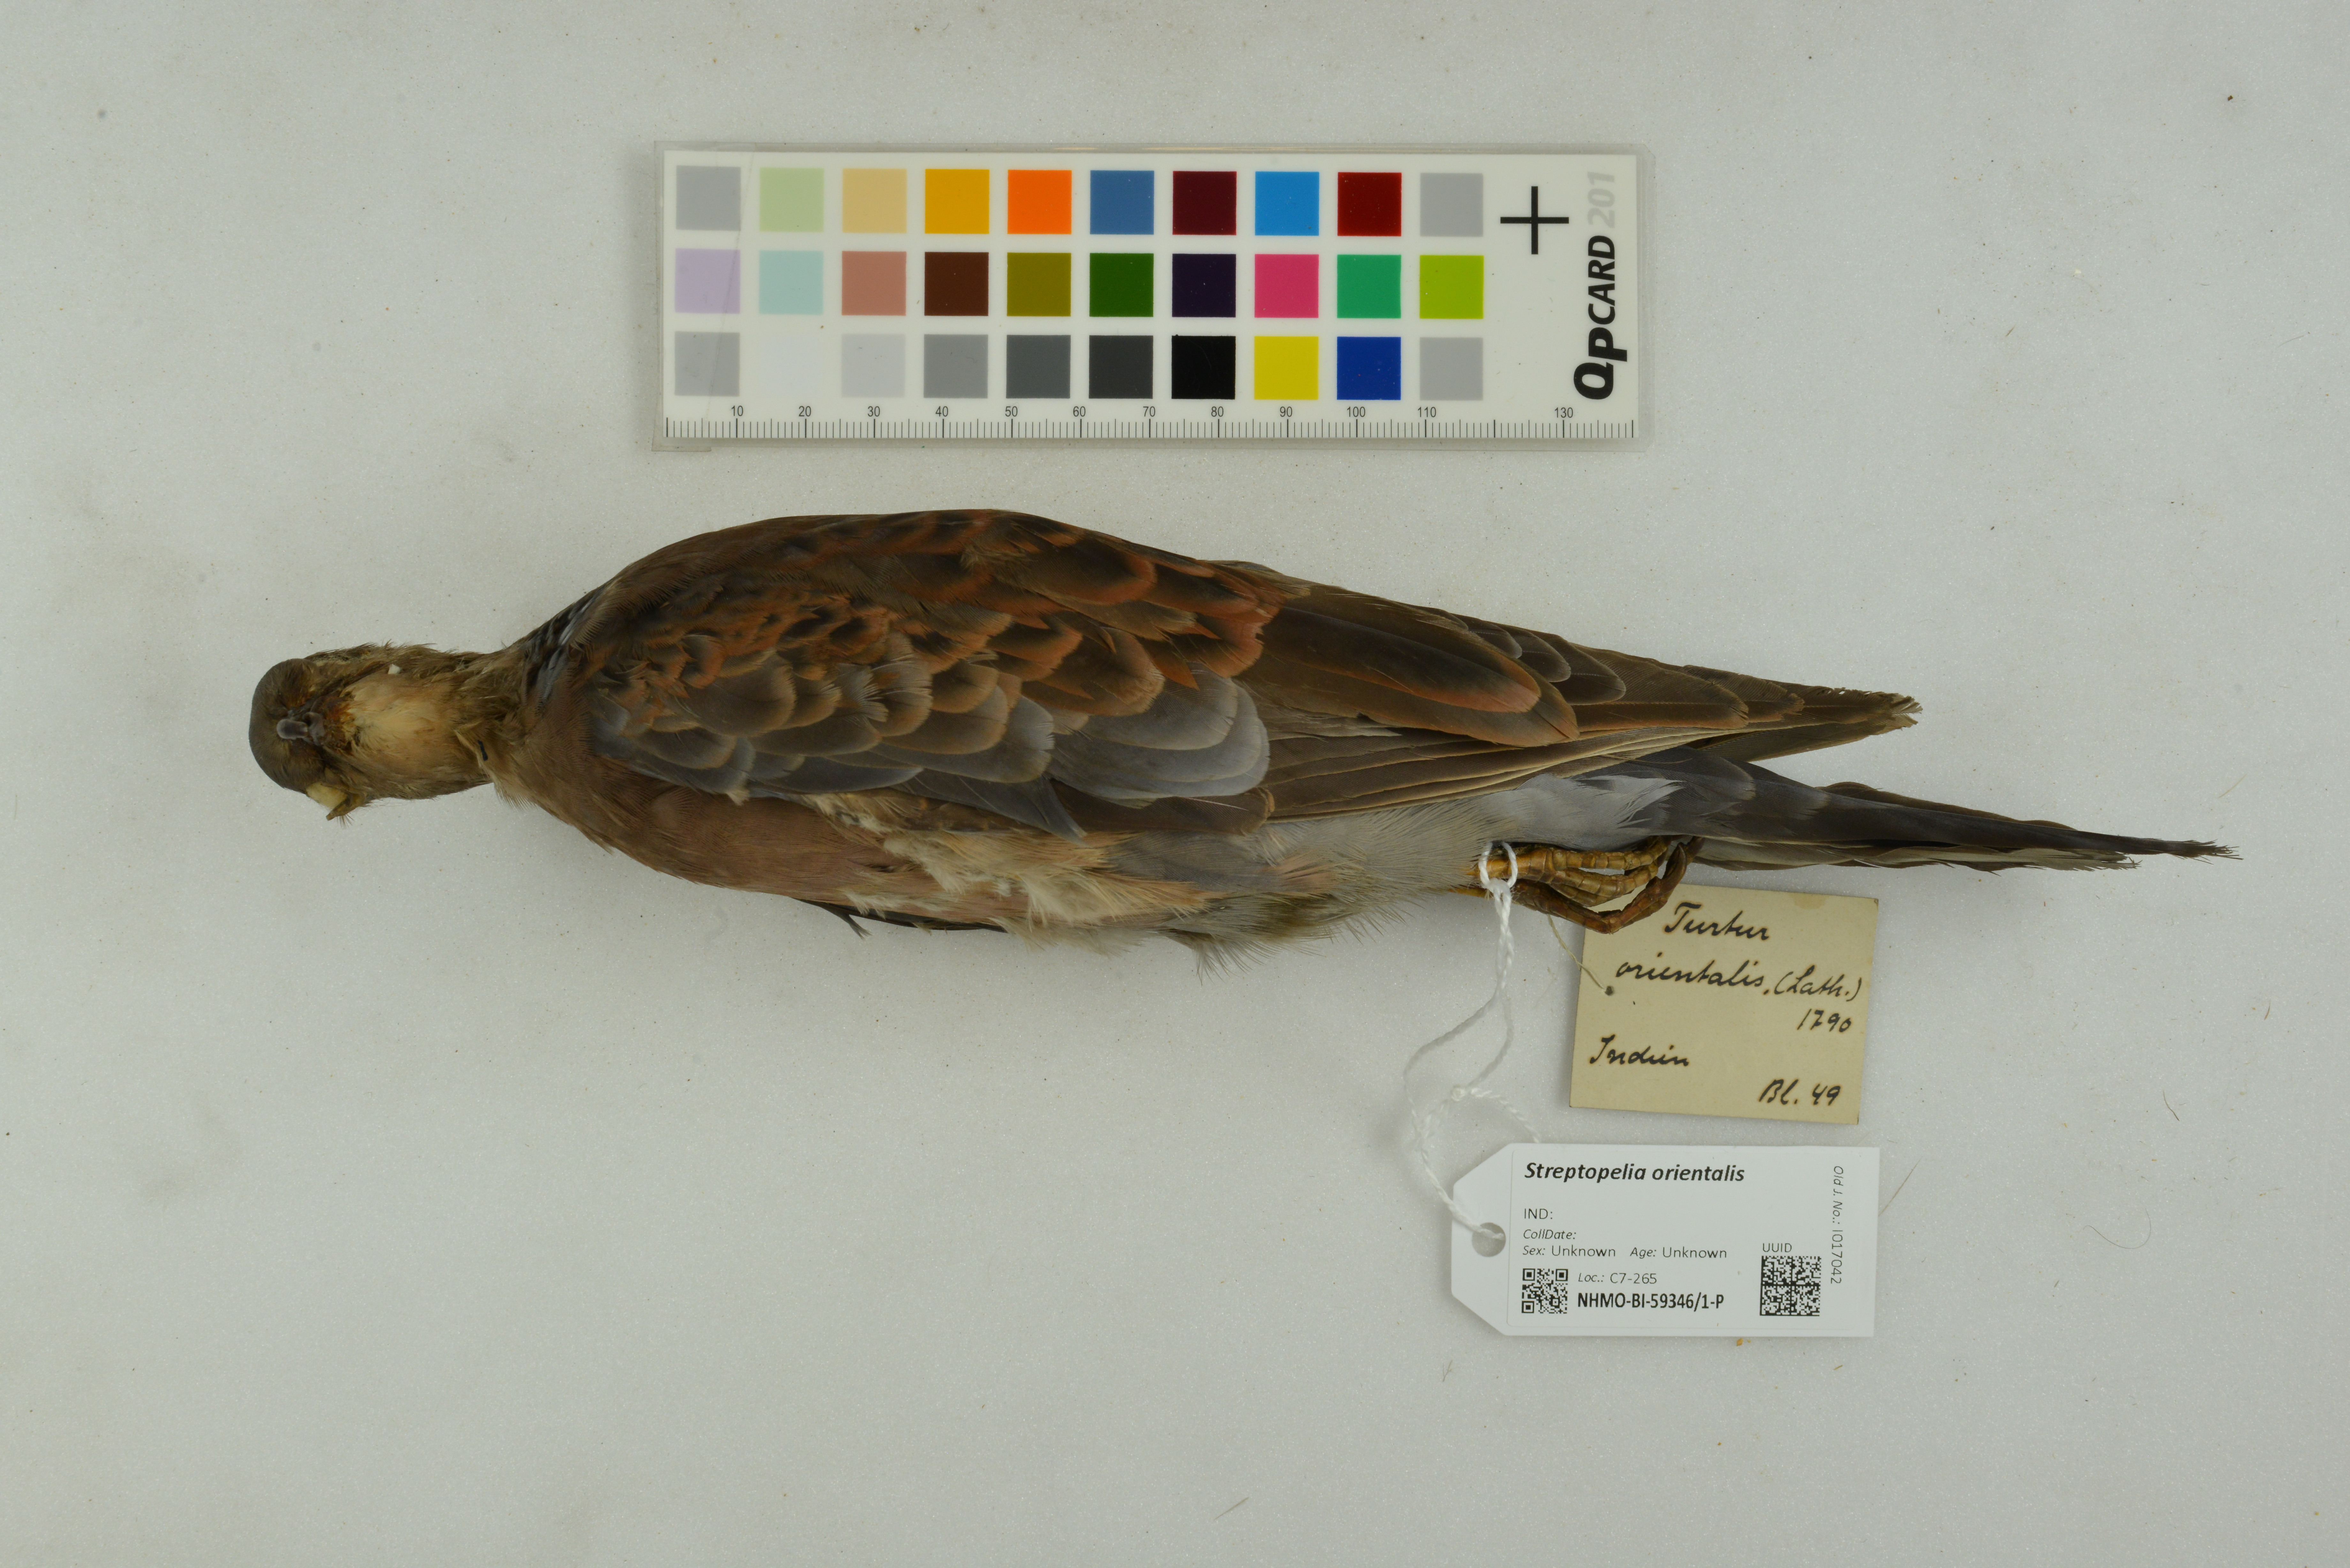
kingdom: Animalia
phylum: Chordata
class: Aves
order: Columbiformes
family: Columbidae
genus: Streptopelia
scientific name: Streptopelia orientalis
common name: Oriental turtle dove
